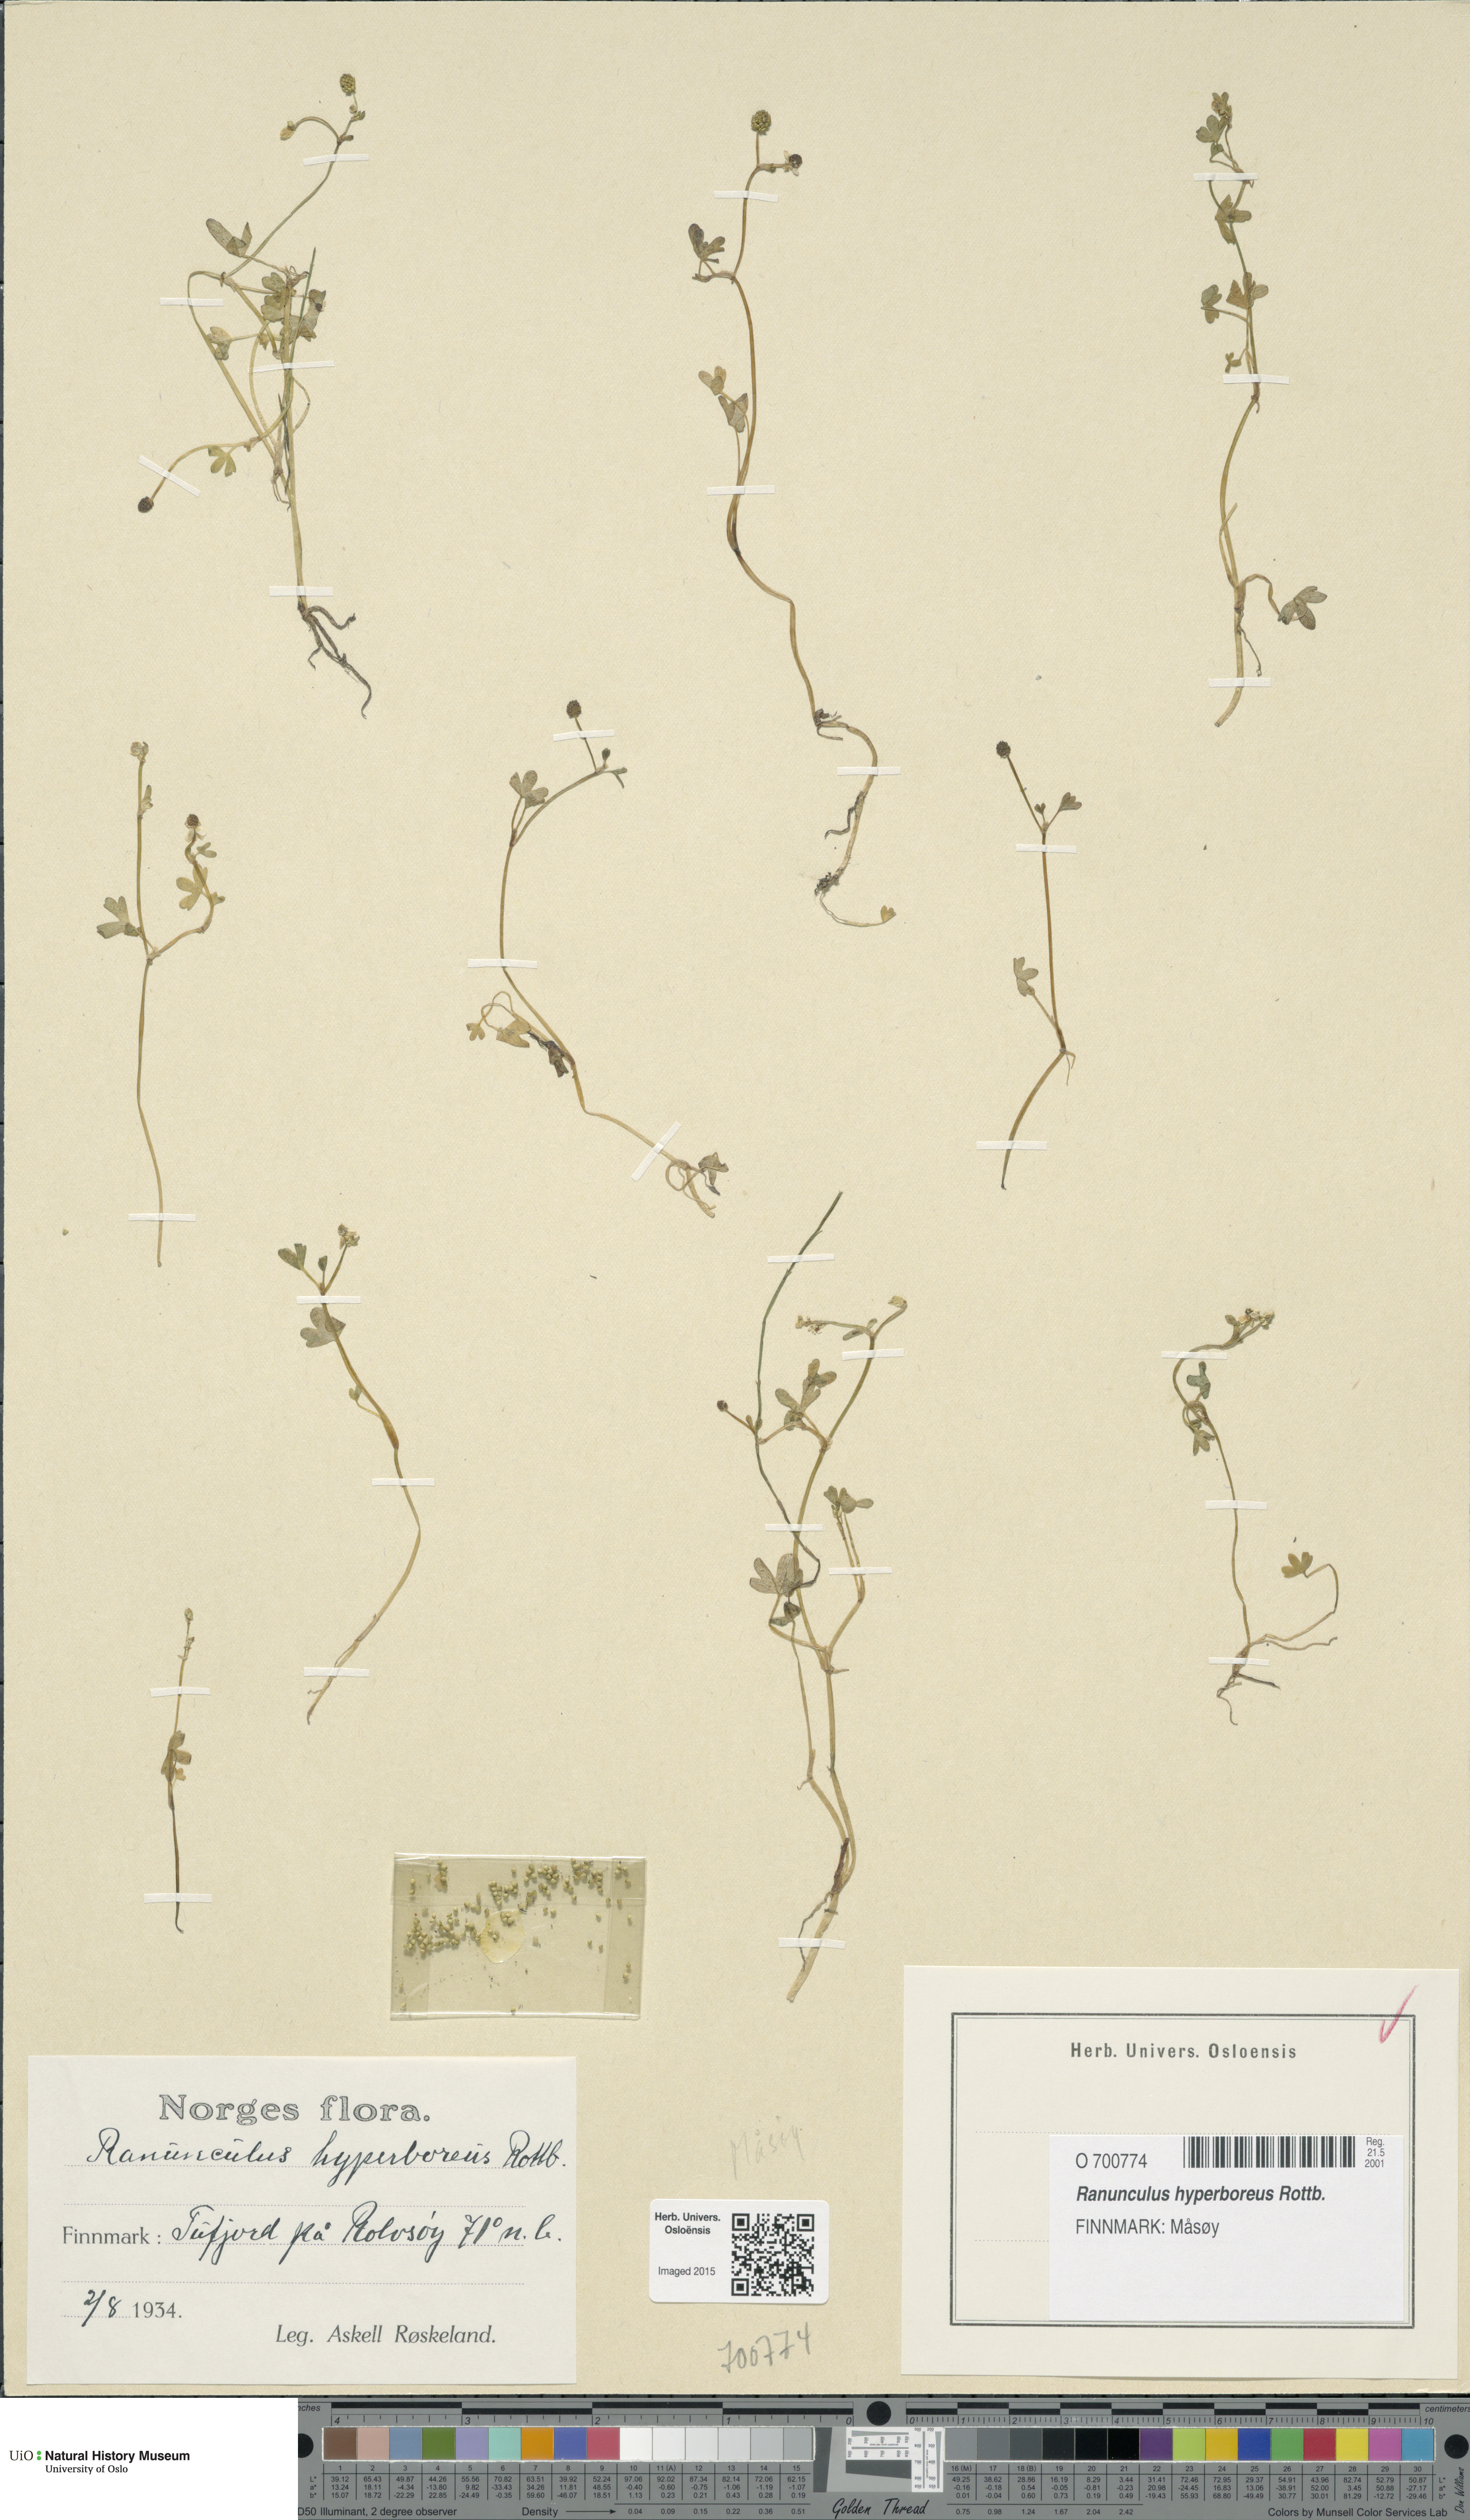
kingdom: Plantae
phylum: Tracheophyta
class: Magnoliopsida
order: Ranunculales
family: Ranunculaceae
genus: Ranunculus
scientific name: Ranunculus hyperboreus
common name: Arctic buttercup
